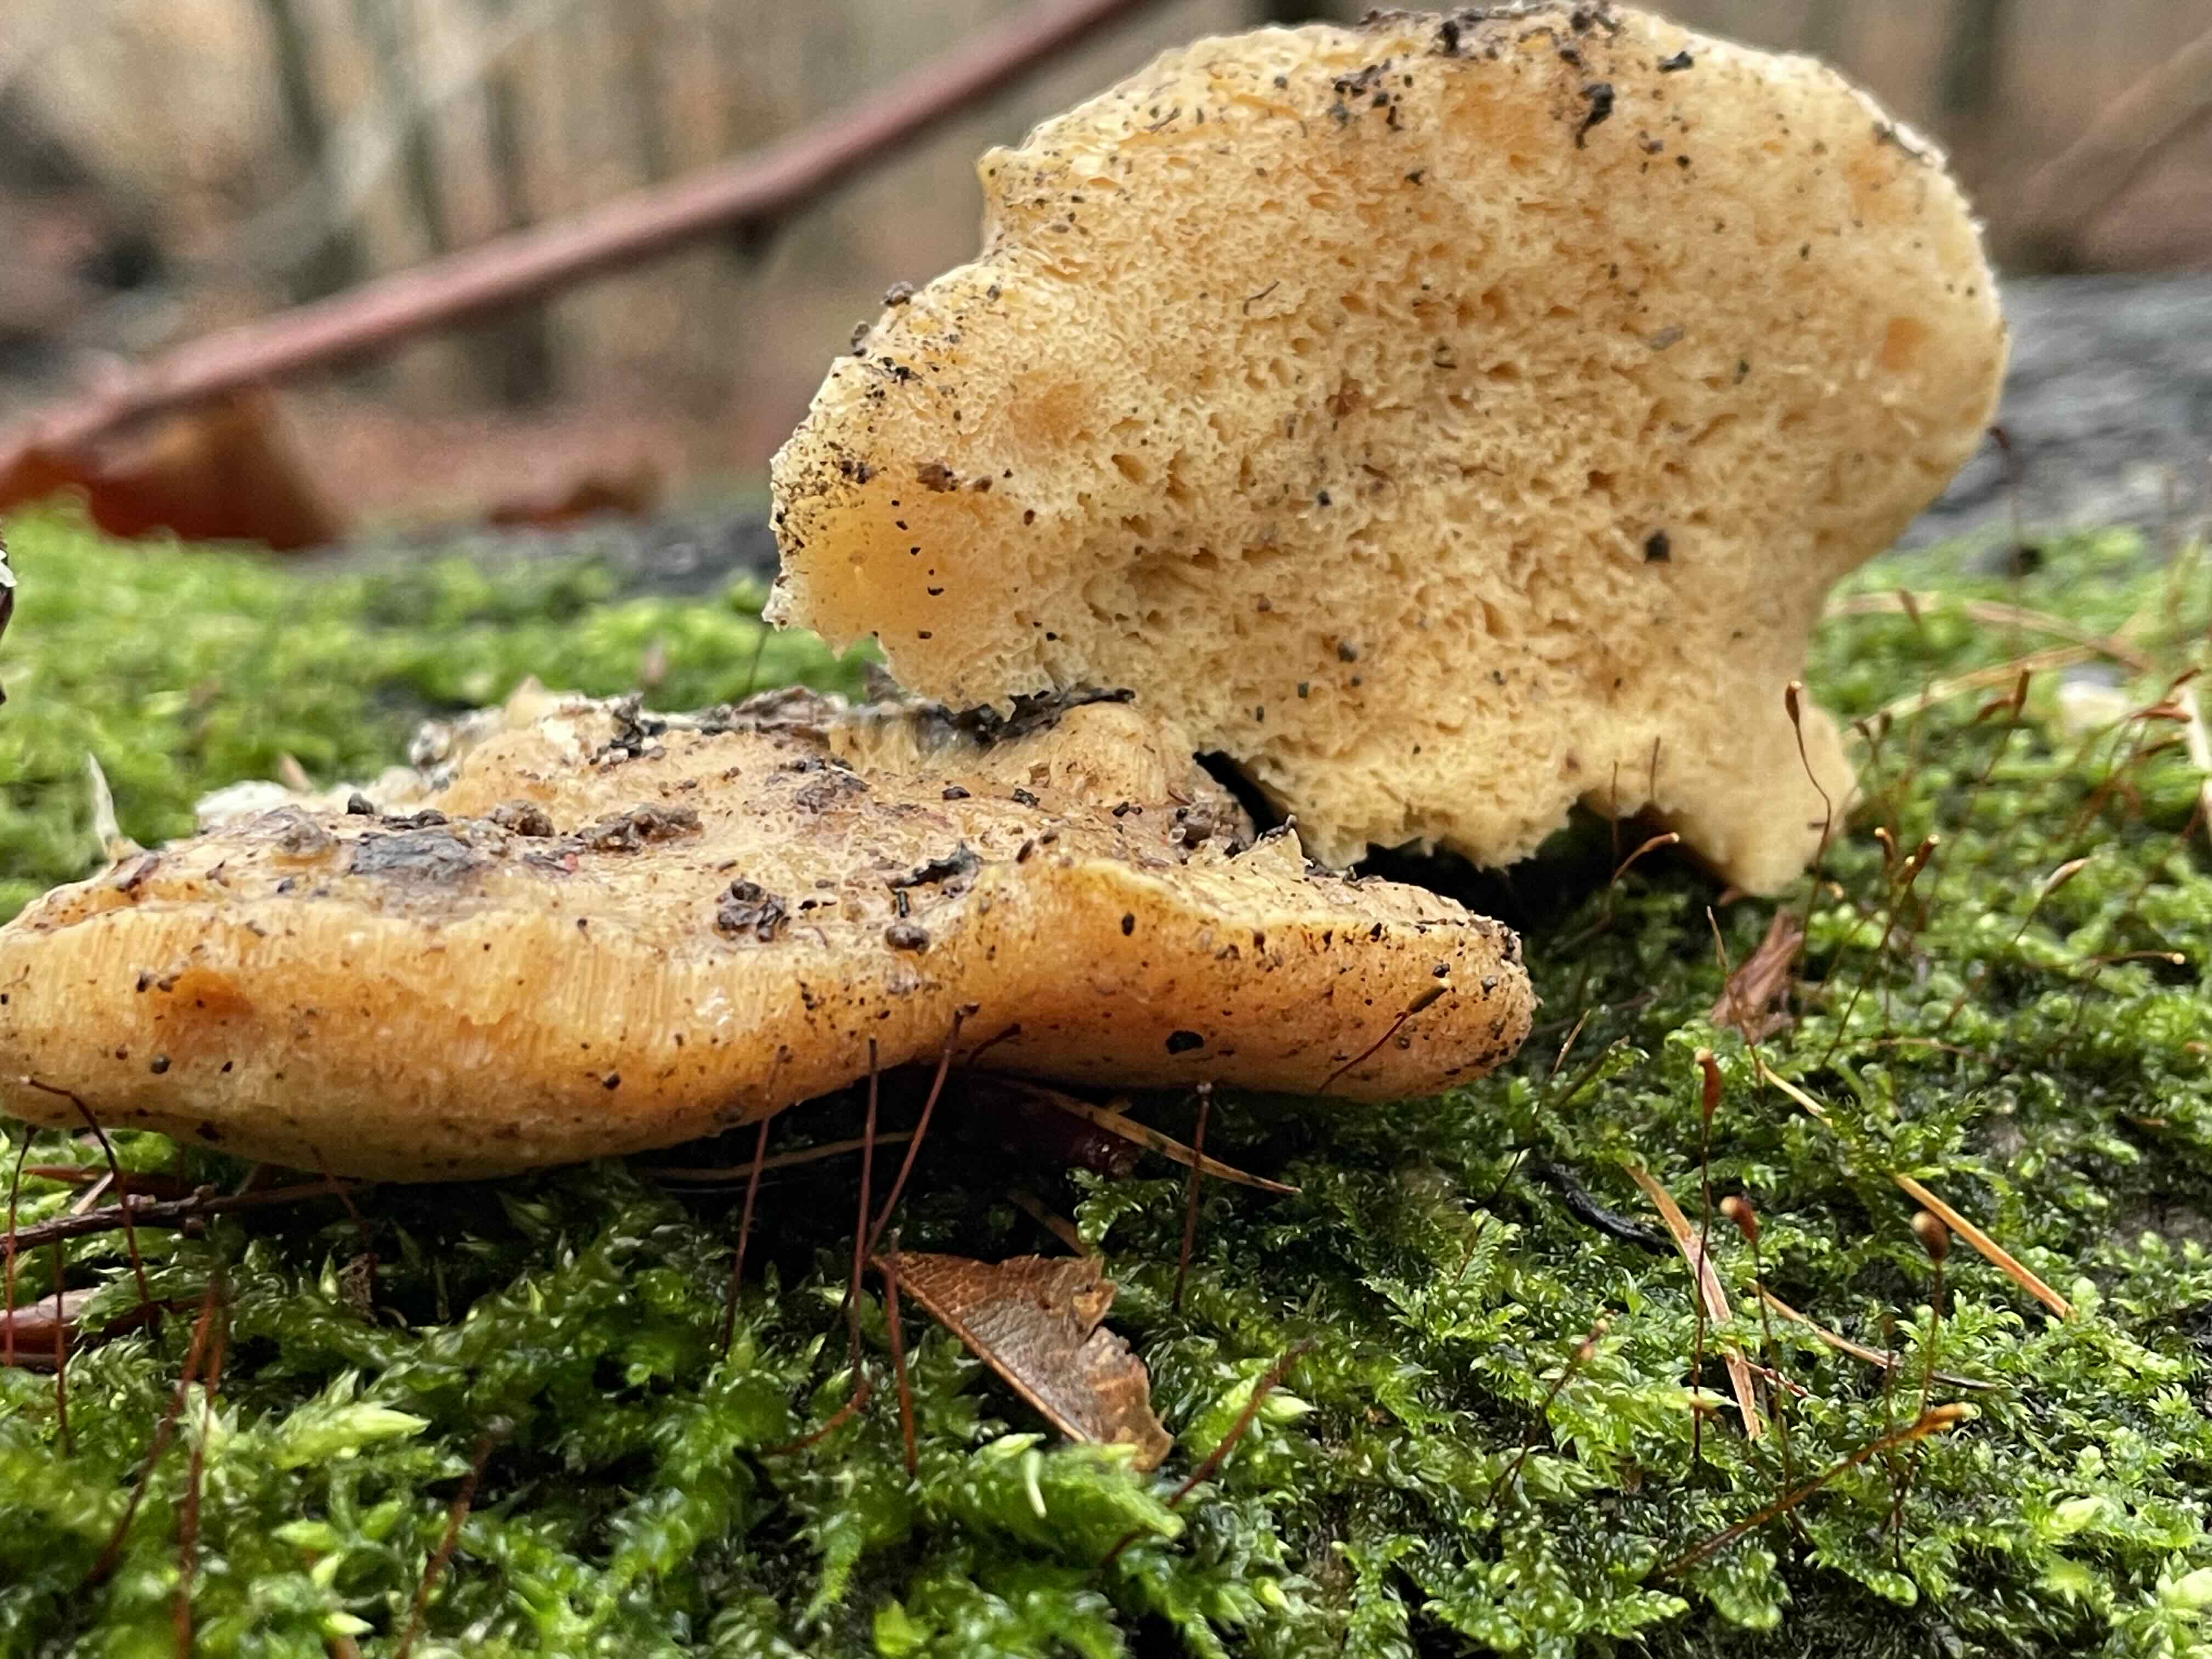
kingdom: Fungi
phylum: Basidiomycota
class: Agaricomycetes
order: Polyporales
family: Steccherinaceae
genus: Antrodiella
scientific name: Antrodiella mentschulensis
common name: abrikosporesvamp
